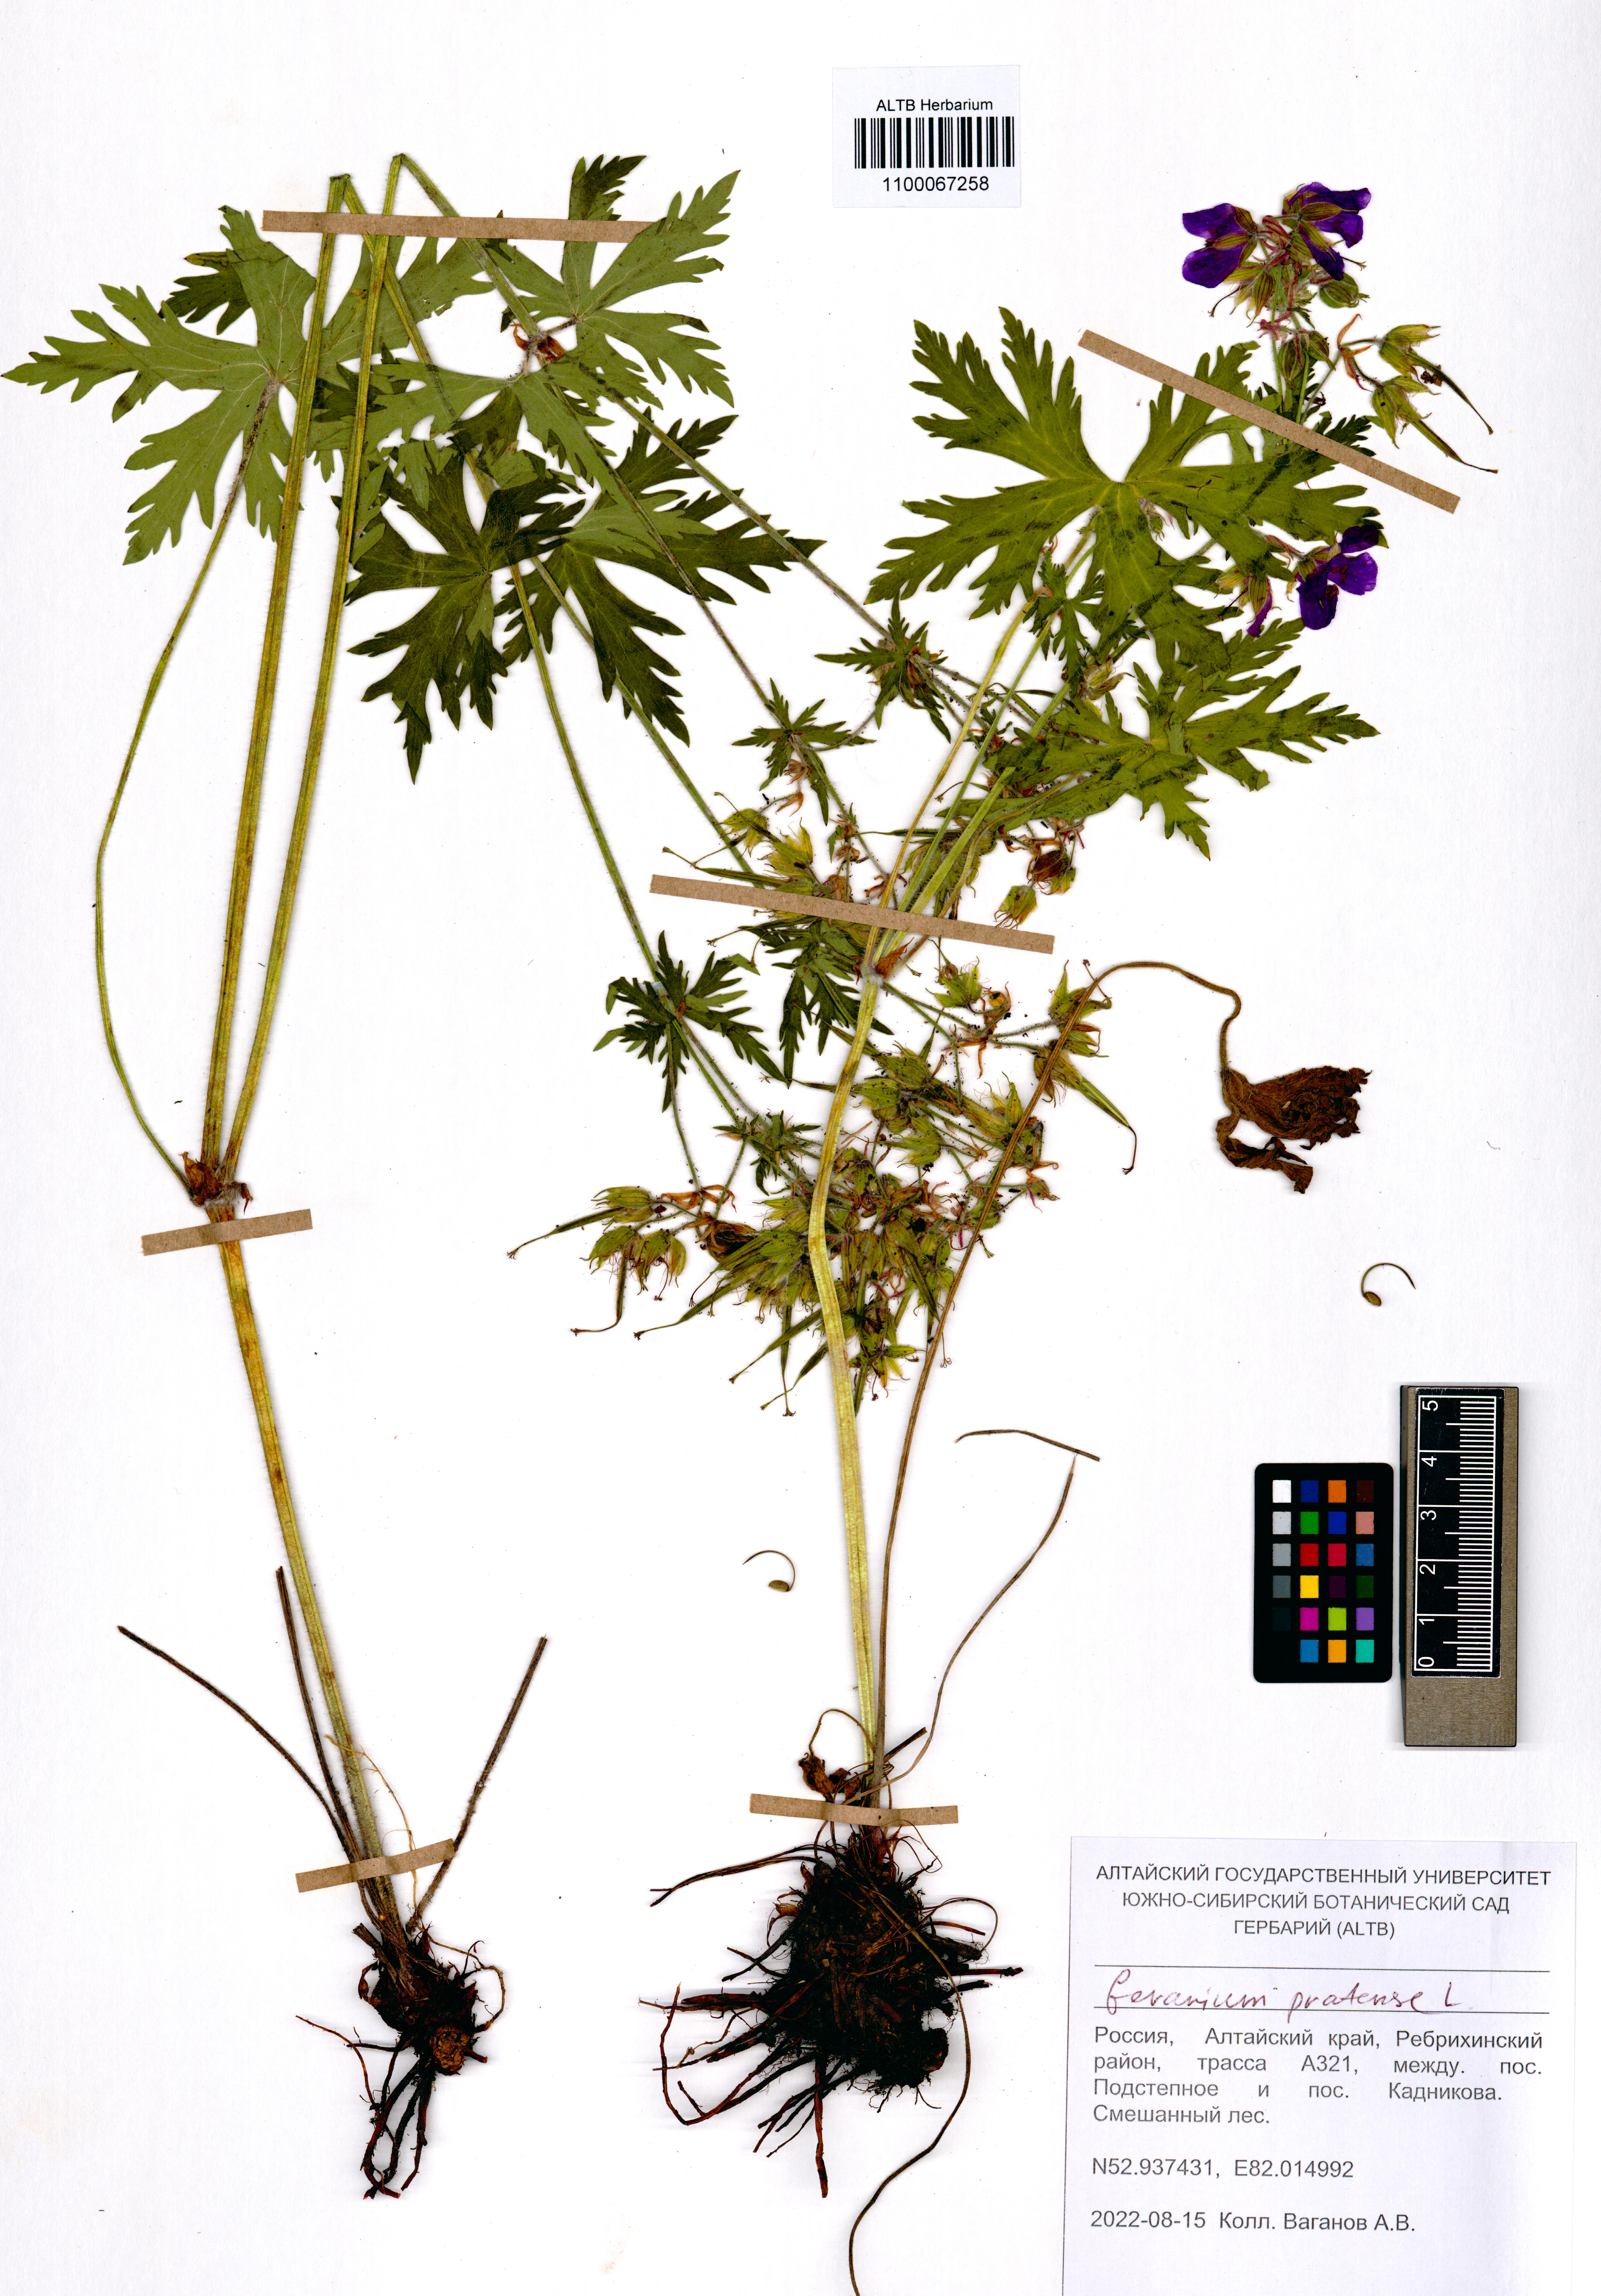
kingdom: Plantae
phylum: Tracheophyta
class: Magnoliopsida
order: Geraniales
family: Geraniaceae
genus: Geranium
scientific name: Geranium pratense
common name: Meadow crane's-bill
